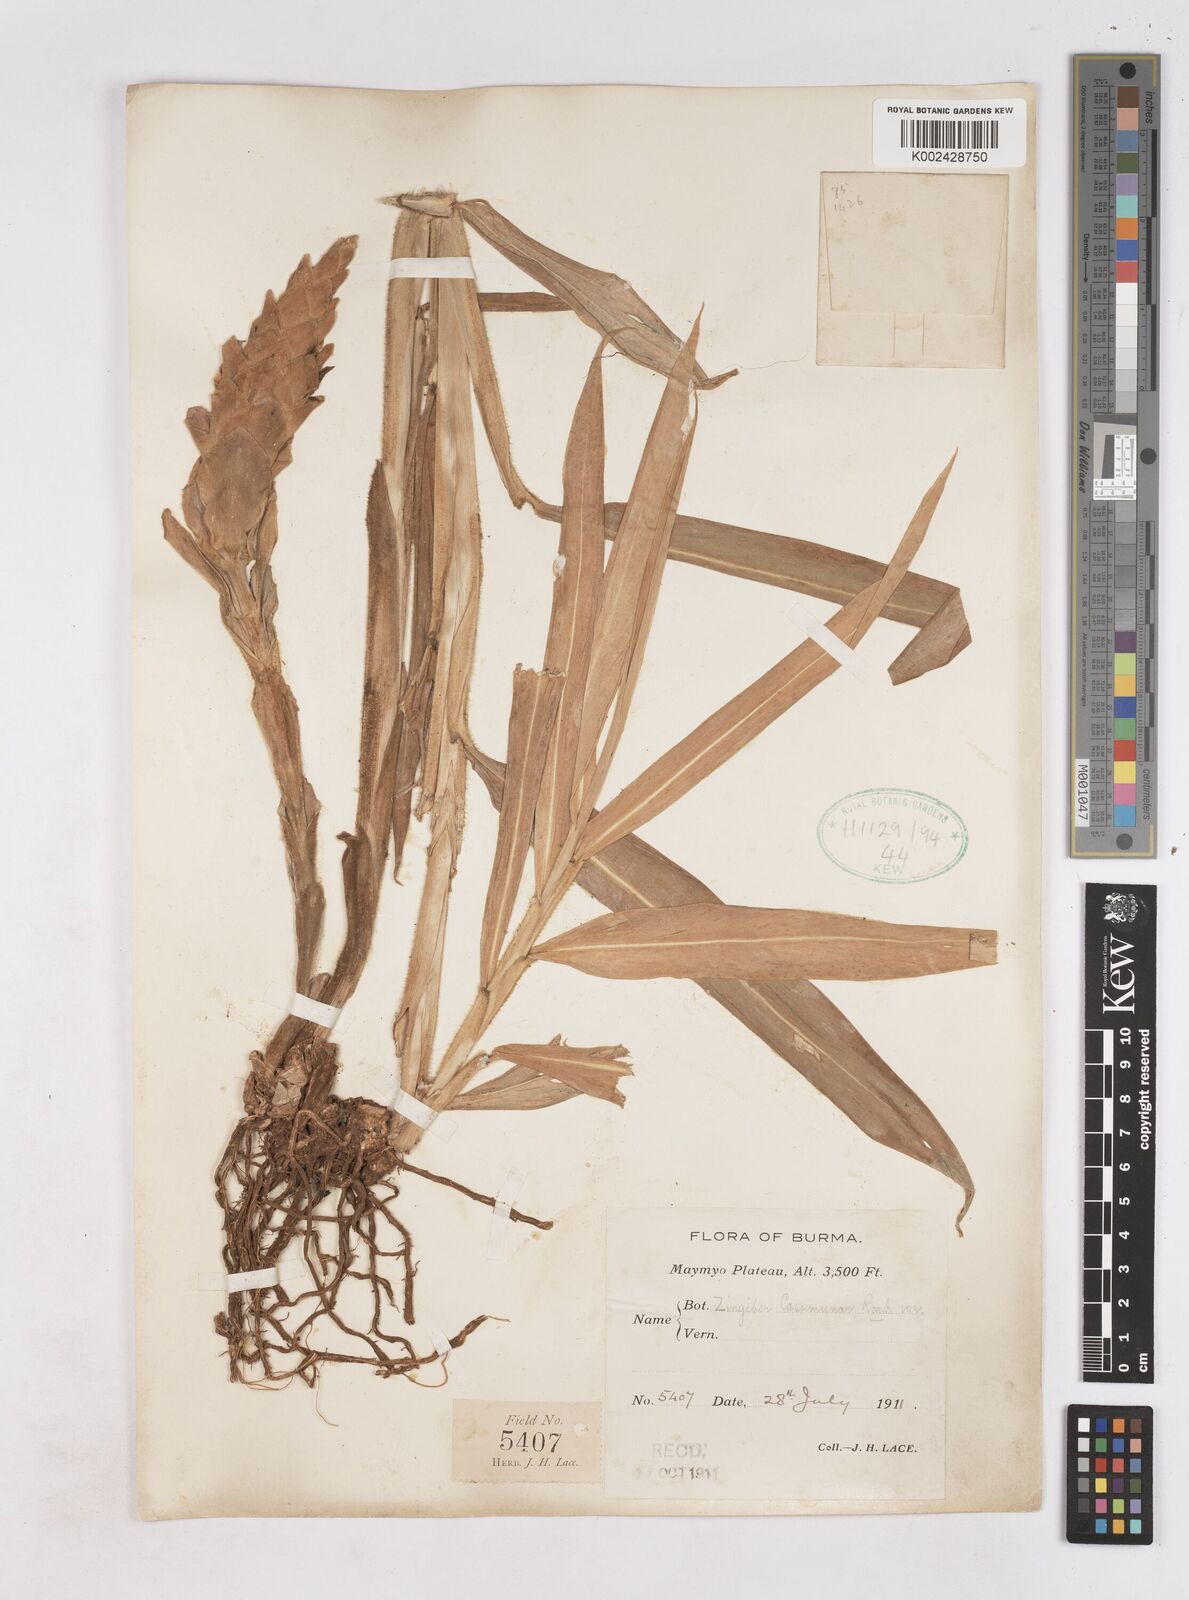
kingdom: Plantae
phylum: Tracheophyta
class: Liliopsida
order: Zingiberales
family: Zingiberaceae
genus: Zingiber
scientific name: Zingiber montanum
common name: Bengal ginger
